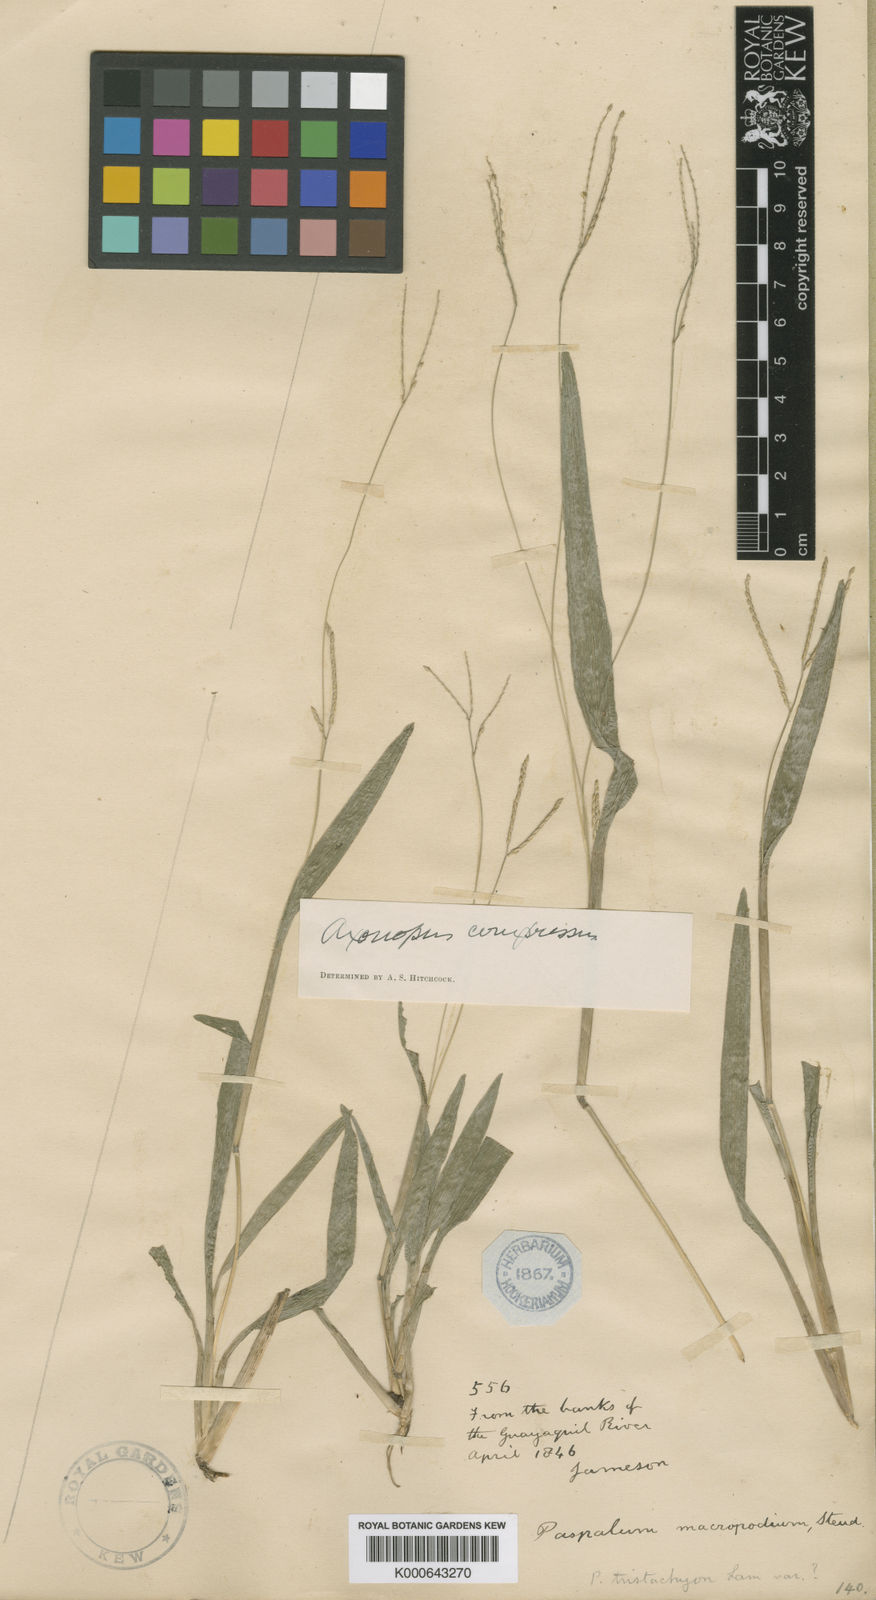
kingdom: Plantae
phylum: Tracheophyta
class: Liliopsida
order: Poales
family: Poaceae
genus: Axonopus
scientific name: Axonopus compressus
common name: American carpet grass
